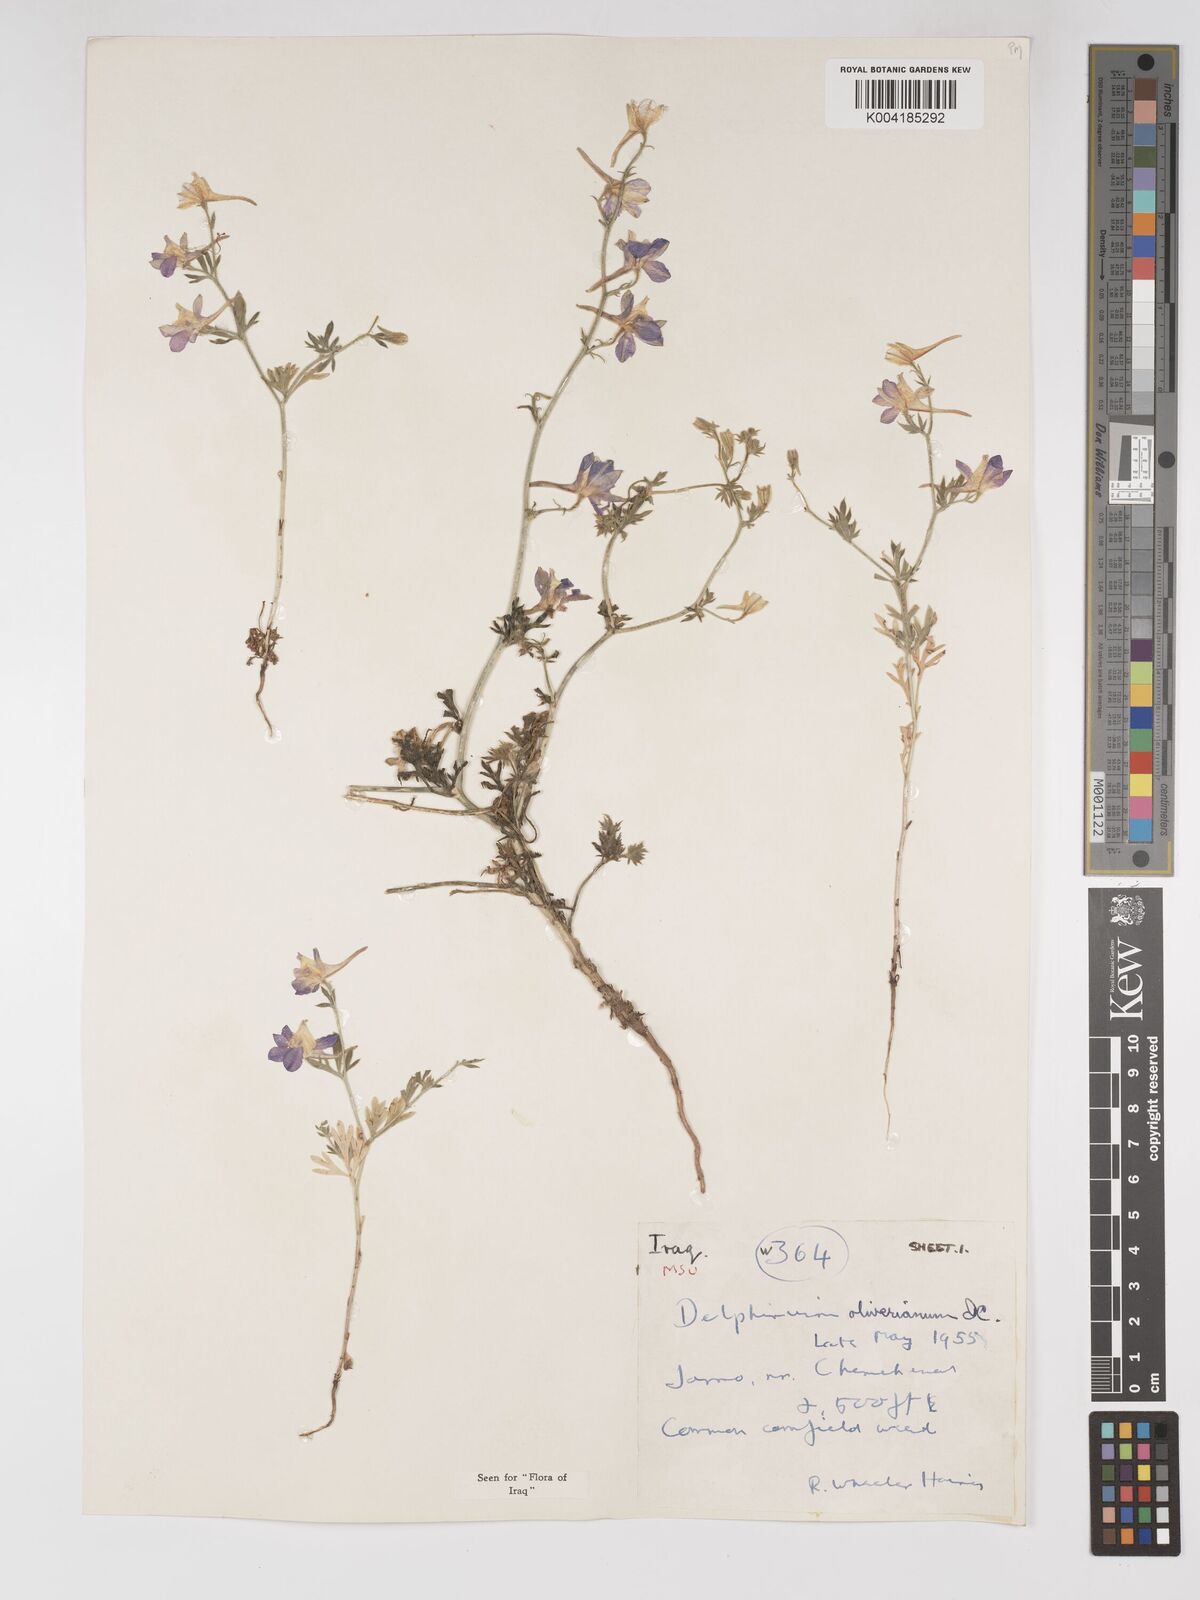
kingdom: Plantae
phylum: Tracheophyta
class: Magnoliopsida
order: Ranunculales
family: Ranunculaceae
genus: Delphinium
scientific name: Delphinium oliverianum
